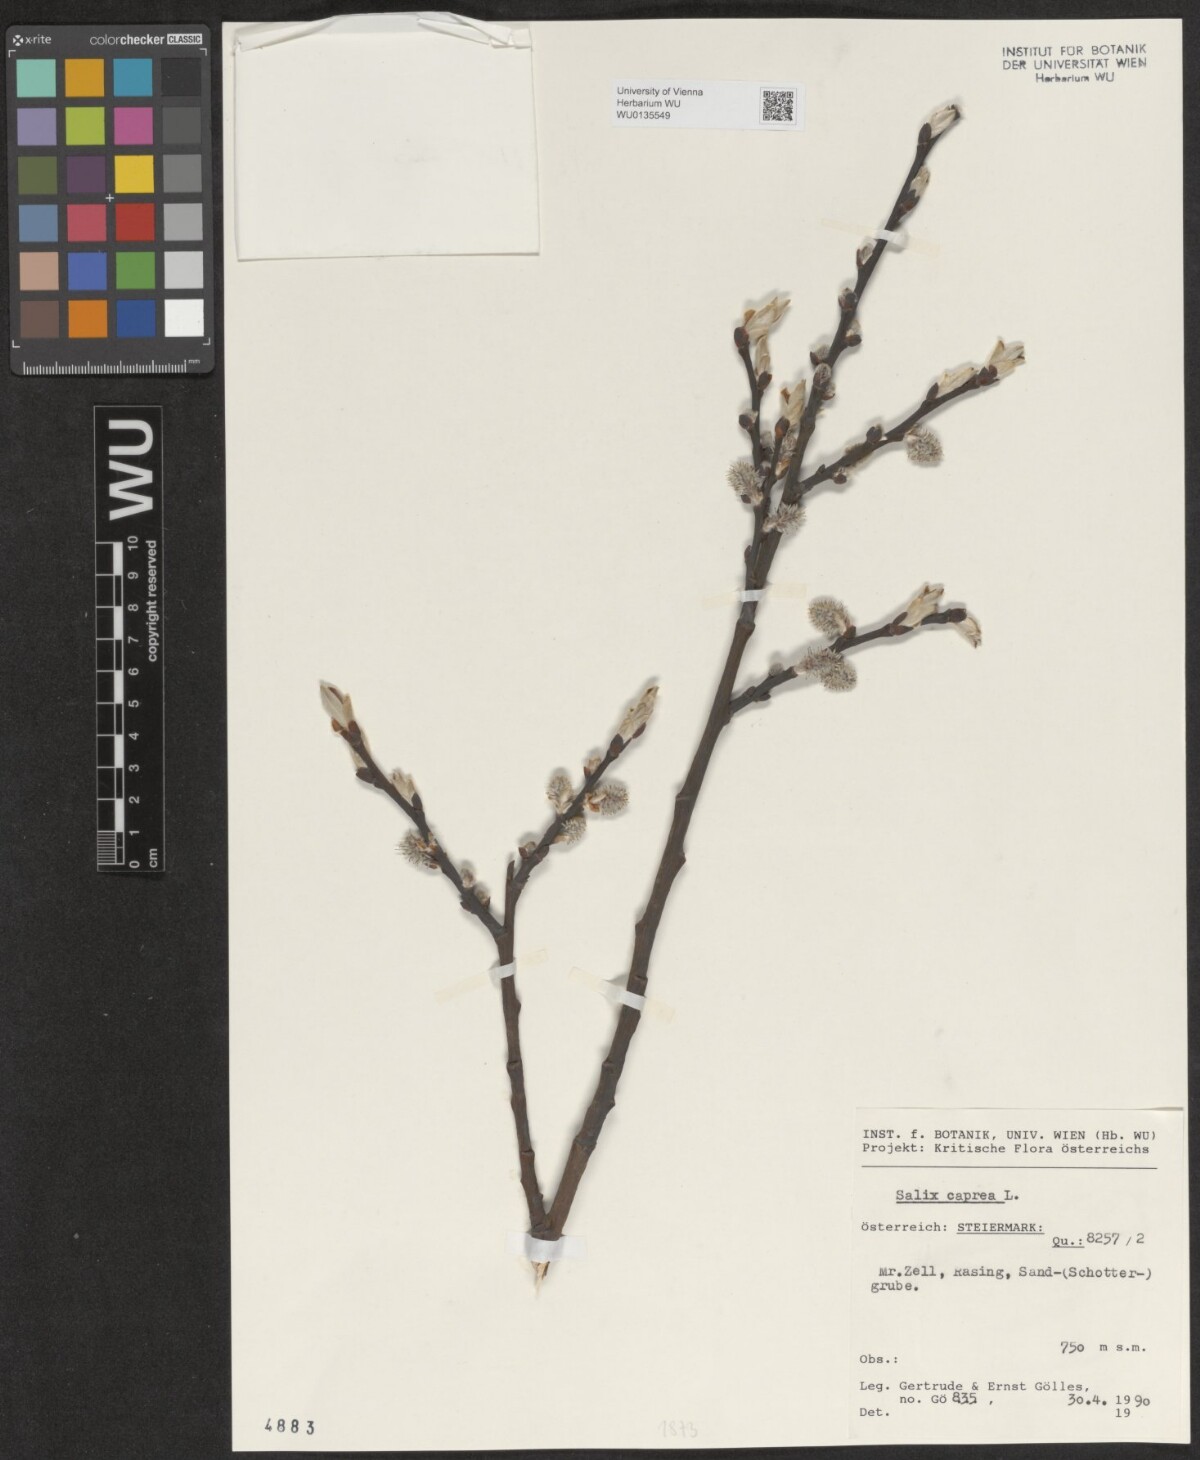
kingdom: Plantae
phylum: Tracheophyta
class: Magnoliopsida
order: Malpighiales
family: Salicaceae
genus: Salix
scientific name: Salix caprea
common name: Goat willow
